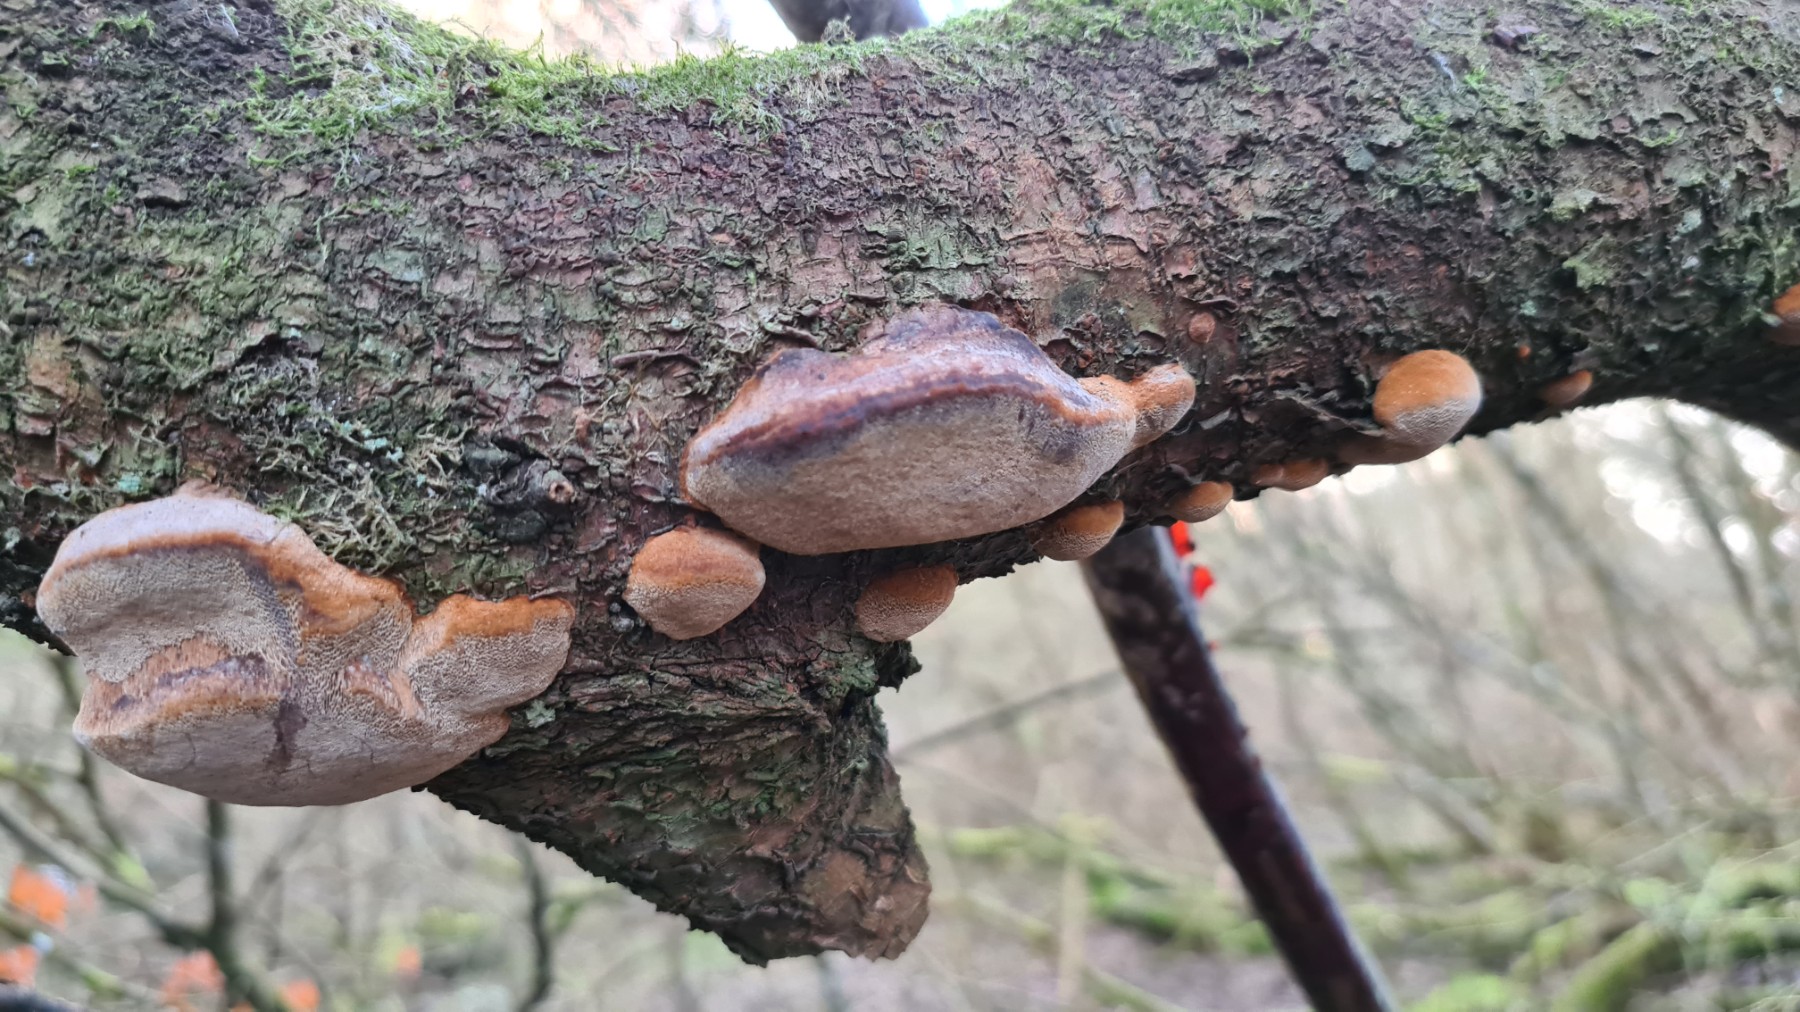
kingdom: Fungi
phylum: Basidiomycota
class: Agaricomycetes
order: Hymenochaetales
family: Hymenochaetaceae
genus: Phellinus
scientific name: Phellinus pomaceus
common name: blomme-ildporesvamp
